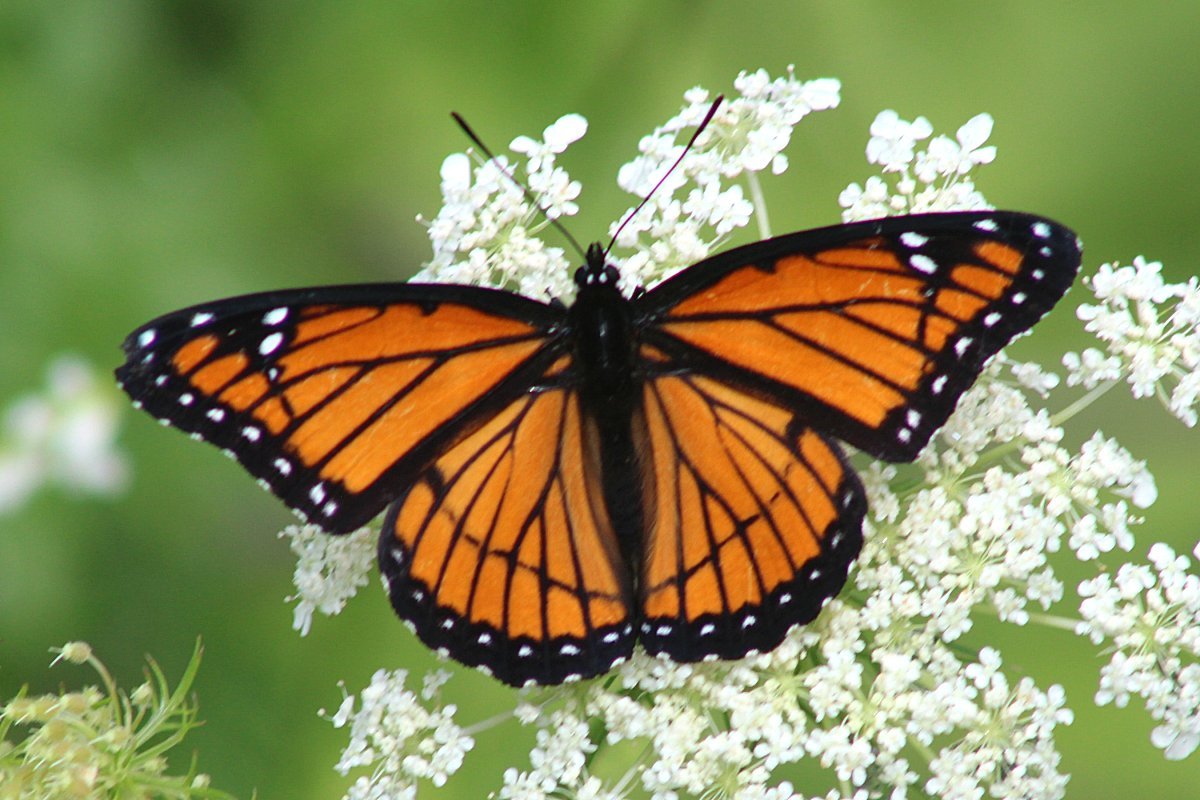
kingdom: Animalia
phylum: Arthropoda
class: Insecta
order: Lepidoptera
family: Nymphalidae
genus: Limenitis
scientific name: Limenitis archippus
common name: Viceroy
